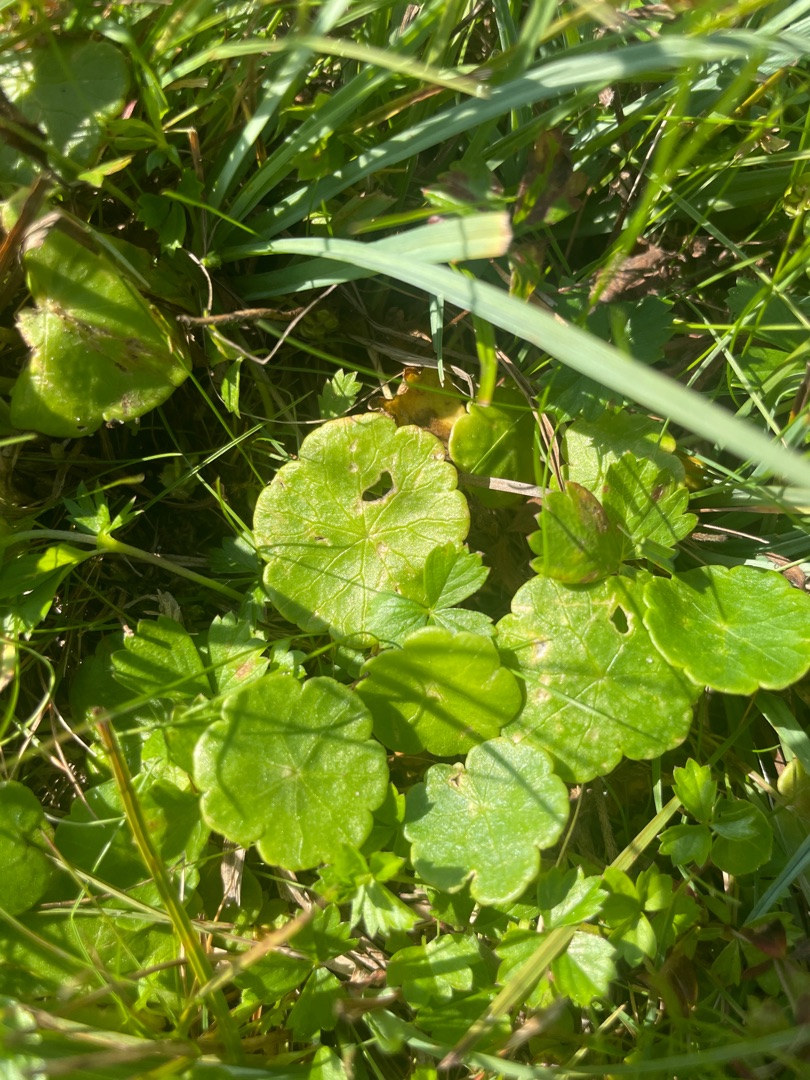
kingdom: Plantae
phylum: Tracheophyta
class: Magnoliopsida
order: Apiales
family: Araliaceae
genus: Hydrocotyle
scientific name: Hydrocotyle vulgaris
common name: Vandnavle
